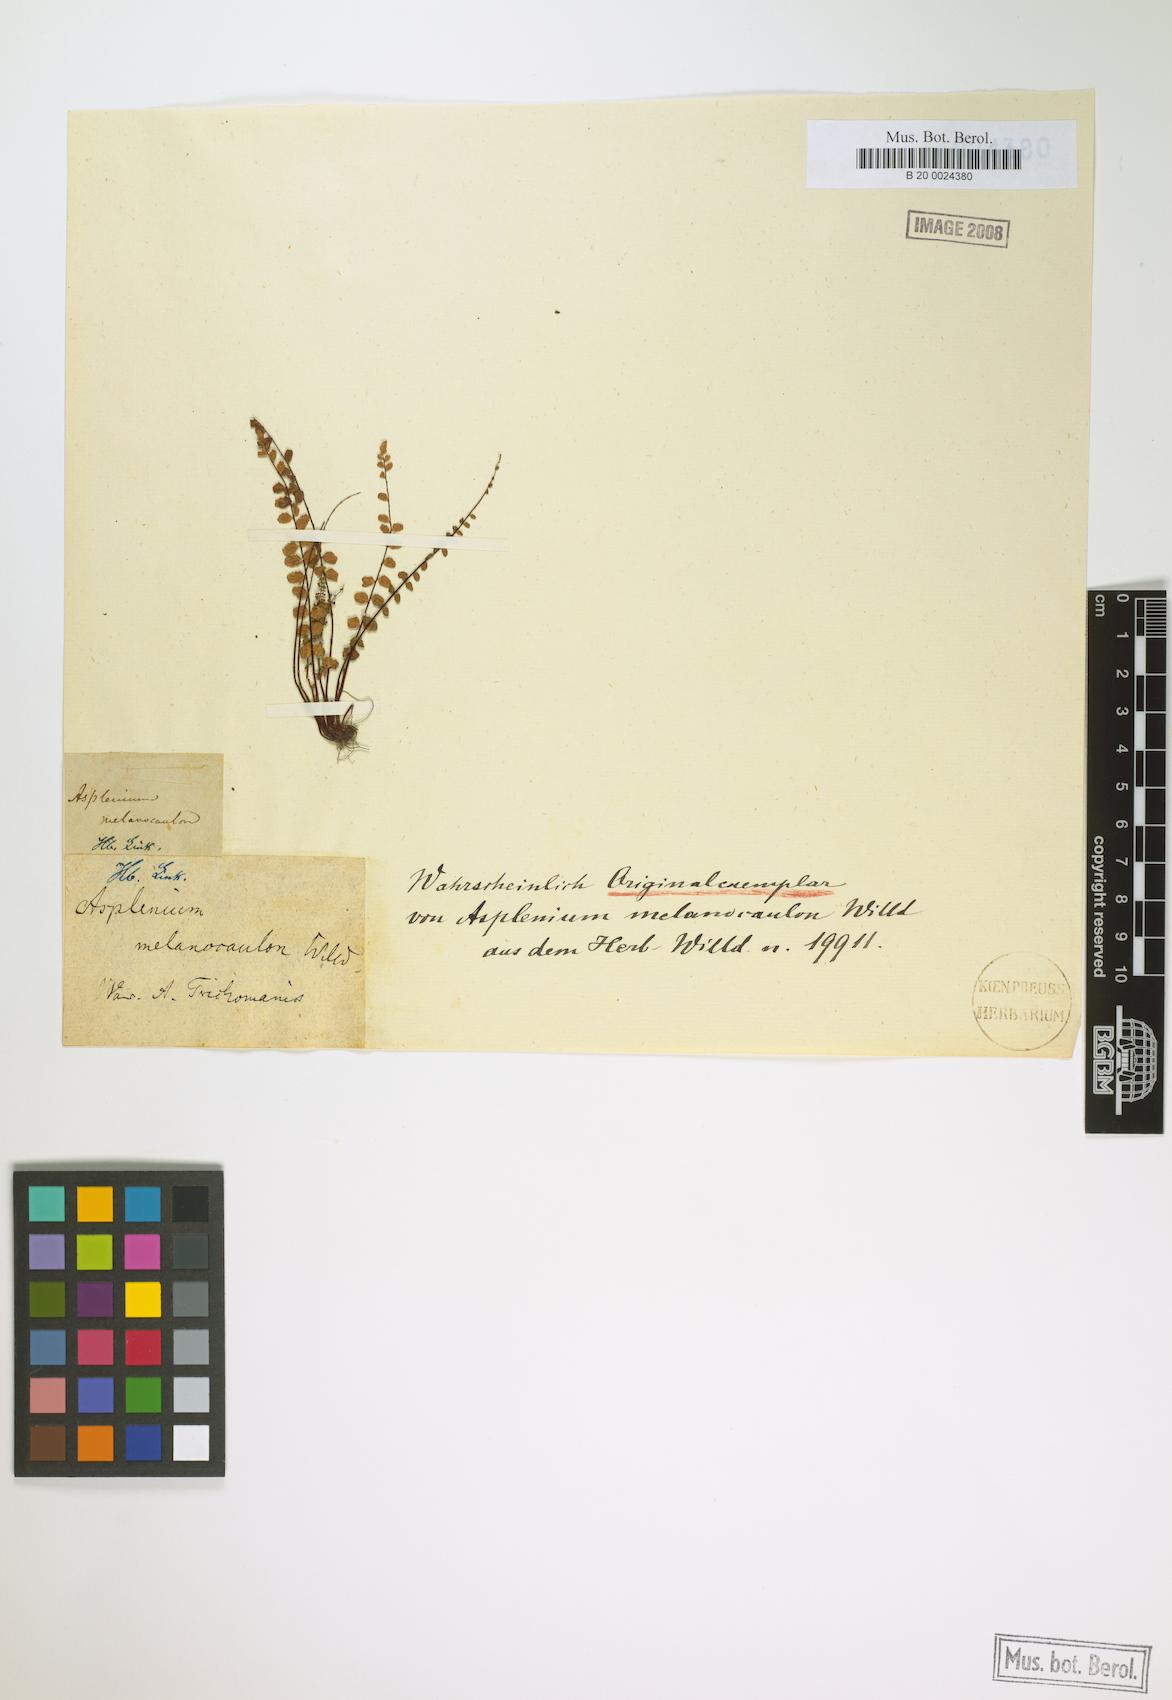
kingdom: Plantae
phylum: Tracheophyta
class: Polypodiopsida
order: Polypodiales
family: Aspleniaceae
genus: Asplenium
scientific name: Asplenium trichomanes
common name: Maidenhair spleenwort
